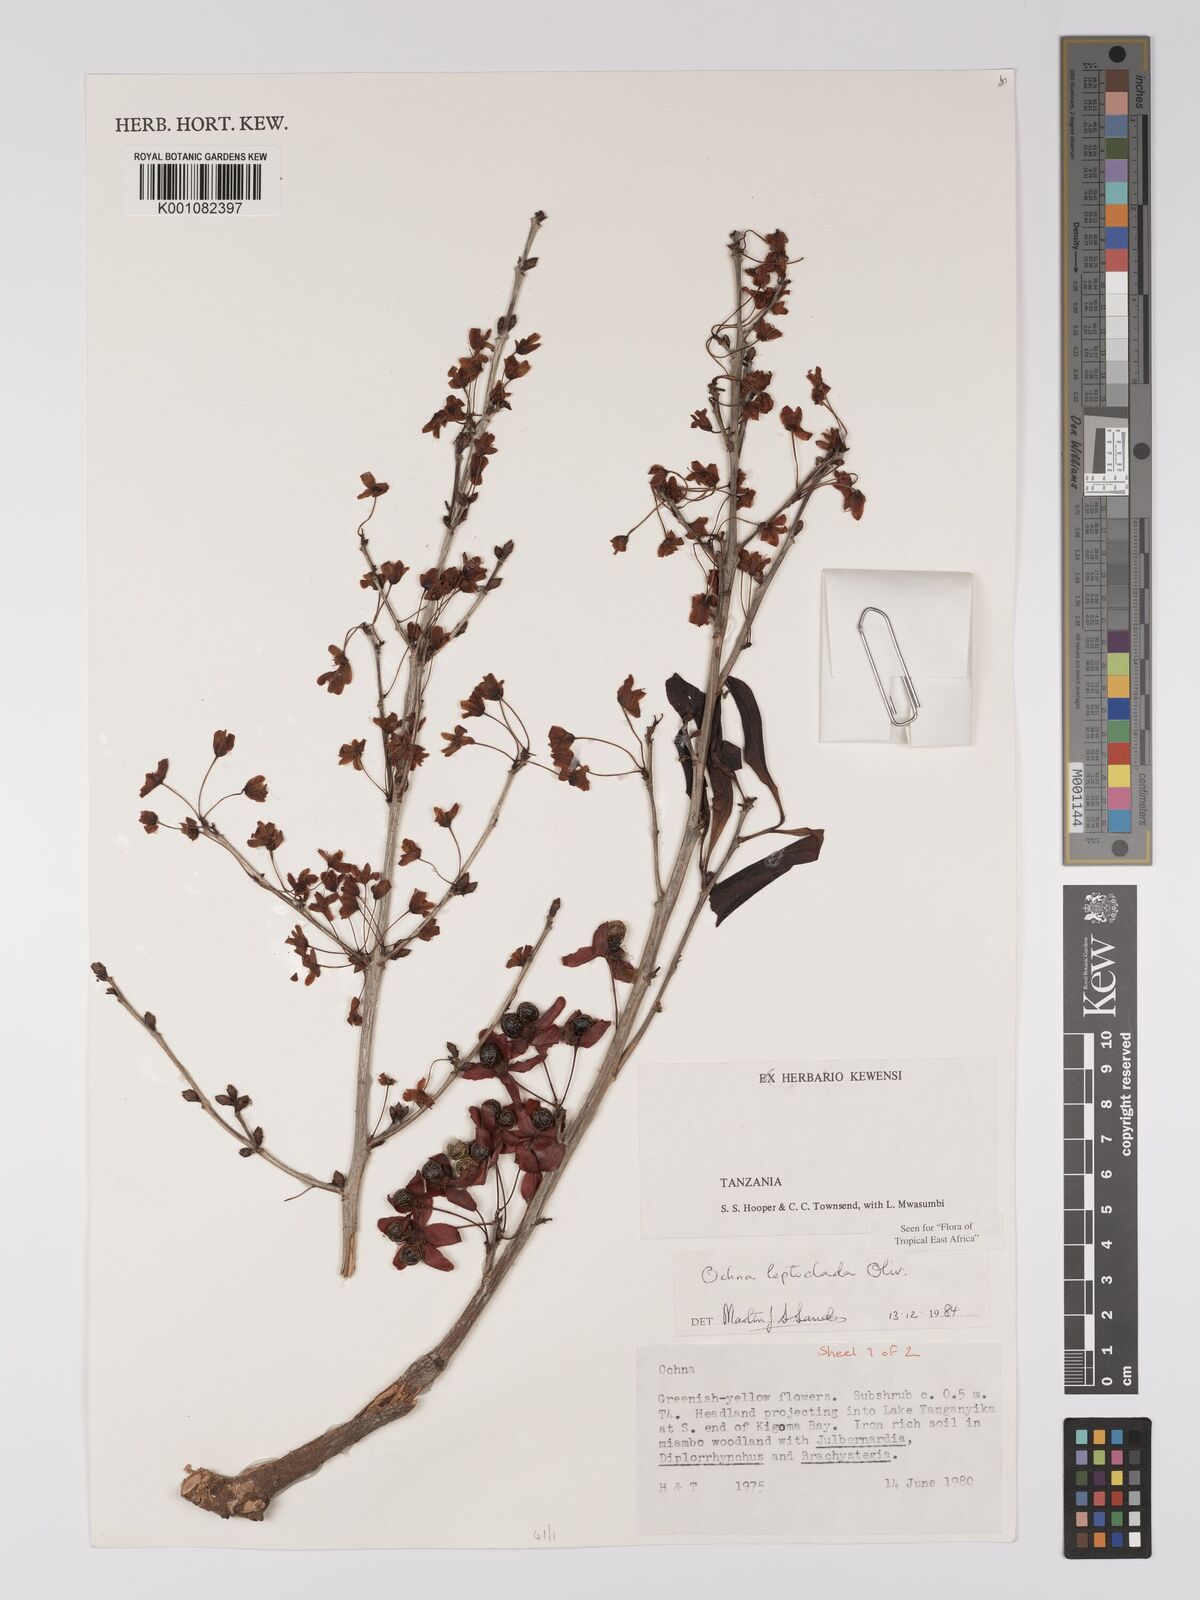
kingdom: Plantae
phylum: Tracheophyta
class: Magnoliopsida
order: Malpighiales
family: Ochnaceae
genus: Ochna
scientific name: Ochna leptoclada
